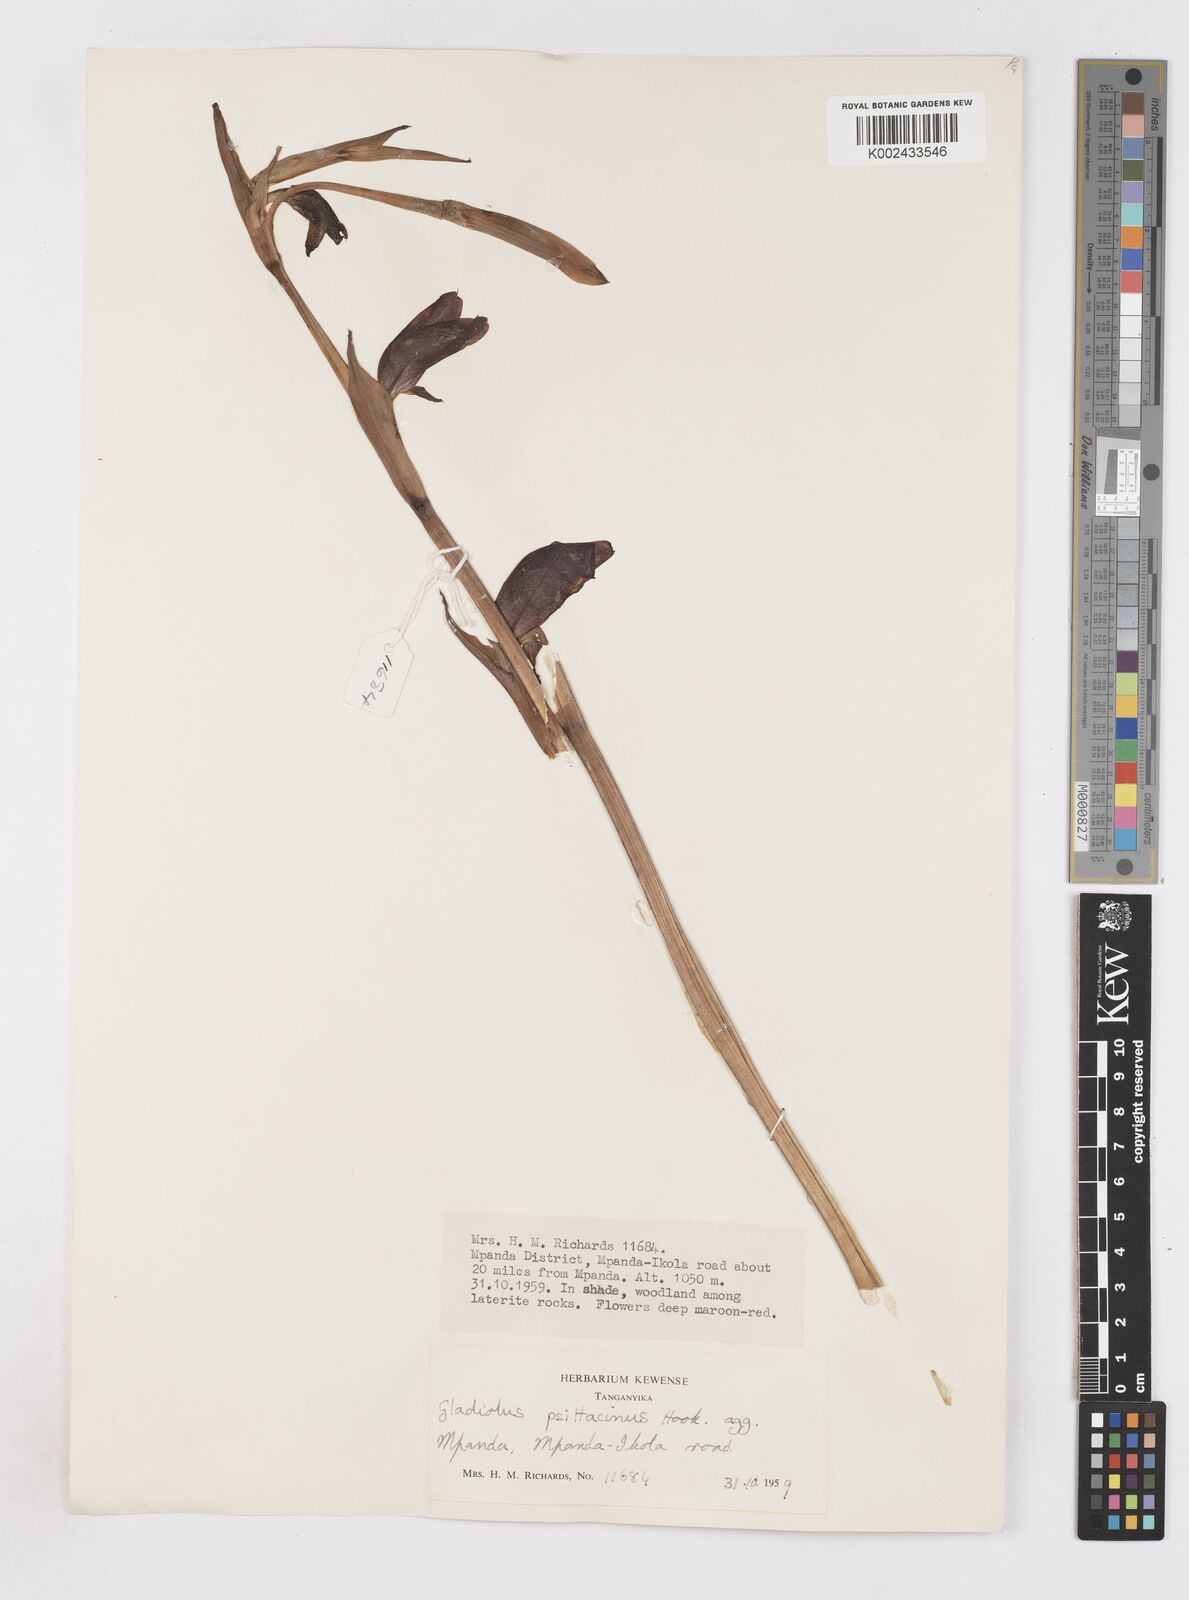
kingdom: Plantae
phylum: Tracheophyta
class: Liliopsida
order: Asparagales
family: Iridaceae
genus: Gladiolus
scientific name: Gladiolus dalenii
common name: Cornflag
